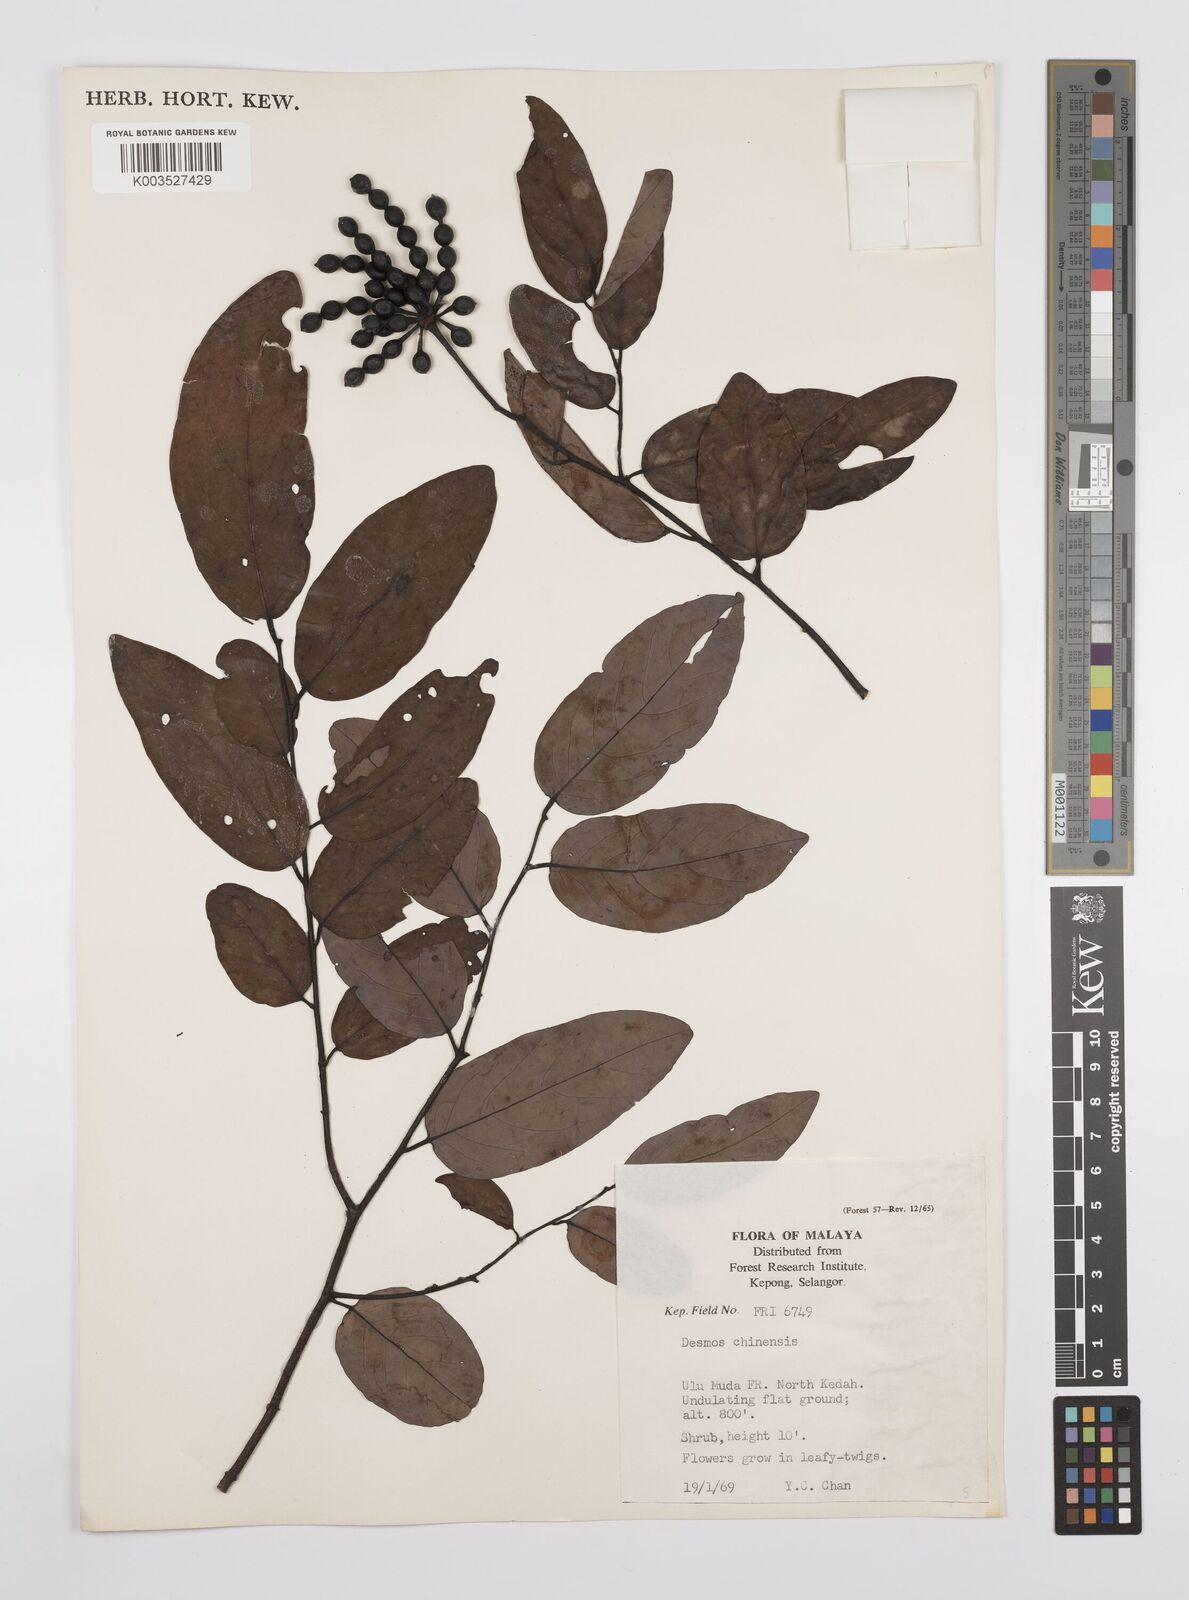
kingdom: Plantae
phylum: Tracheophyta
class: Magnoliopsida
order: Magnoliales
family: Annonaceae
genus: Desmos
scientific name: Desmos chinensis
